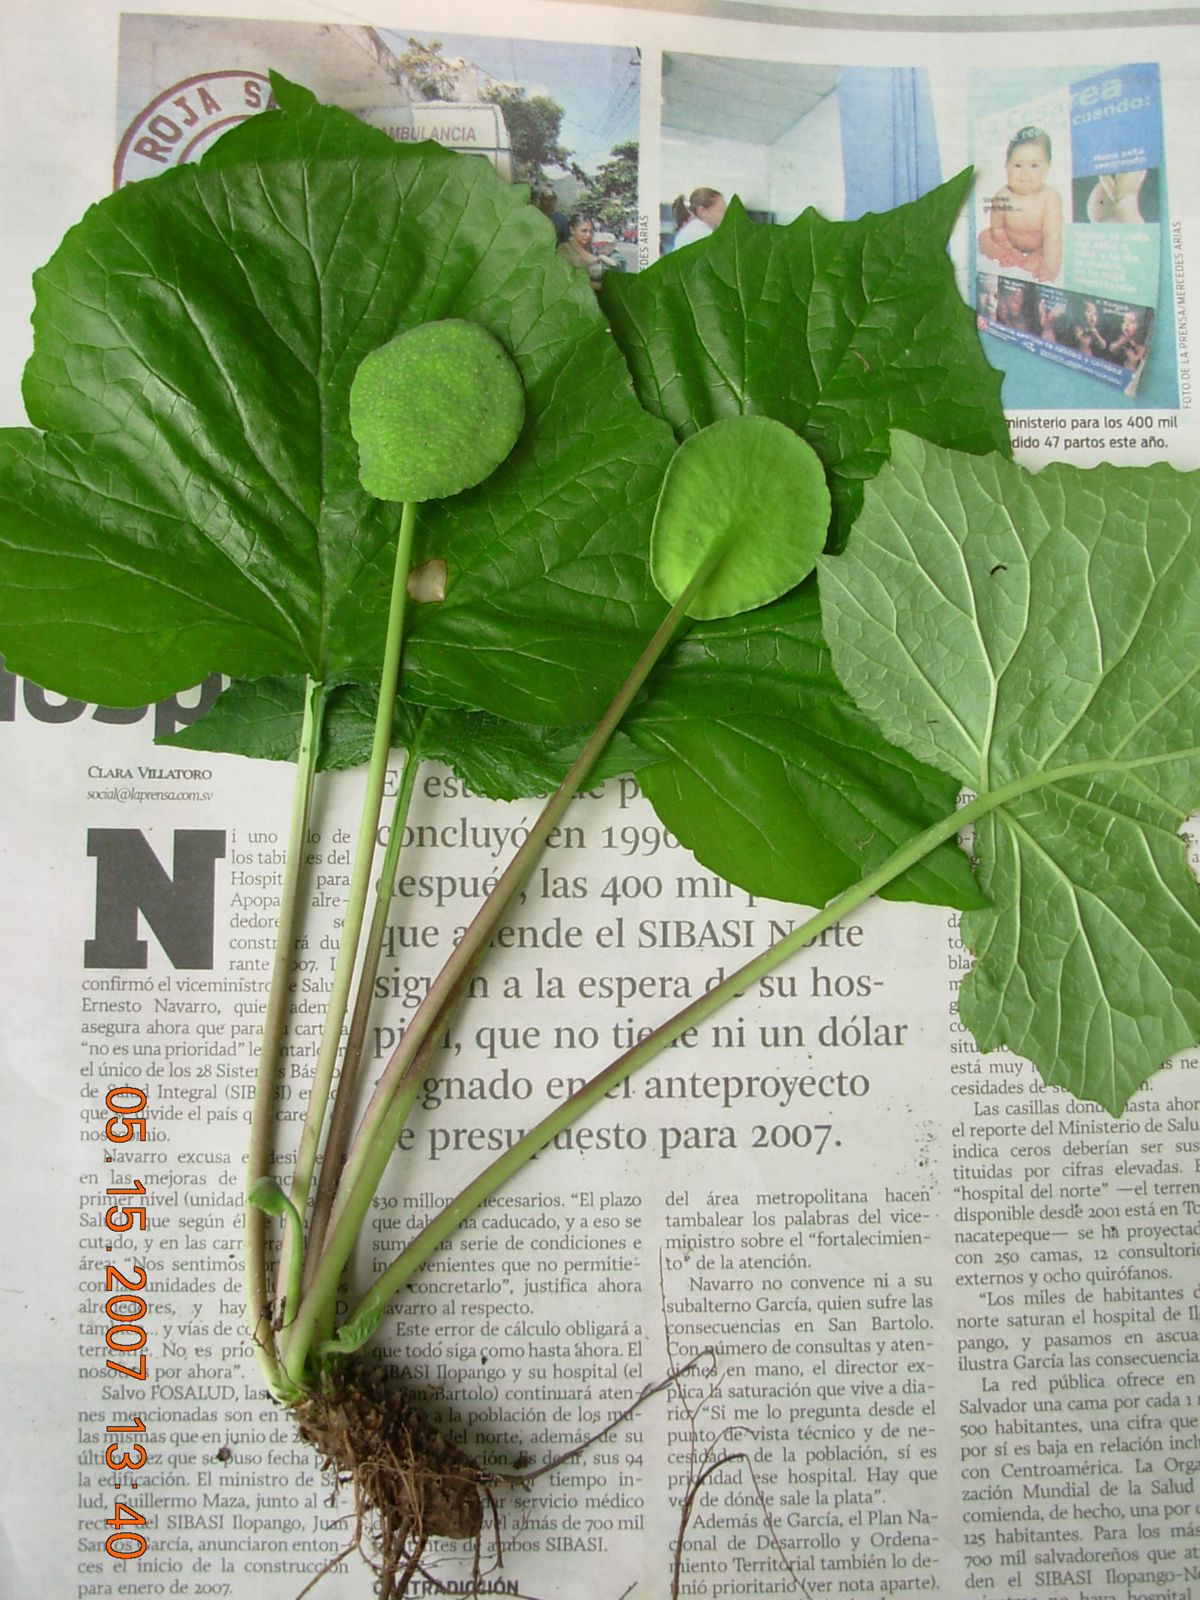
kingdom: Plantae
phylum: Tracheophyta
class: Magnoliopsida
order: Rosales
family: Moraceae
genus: Dorstenia
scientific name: Dorstenia drakena
